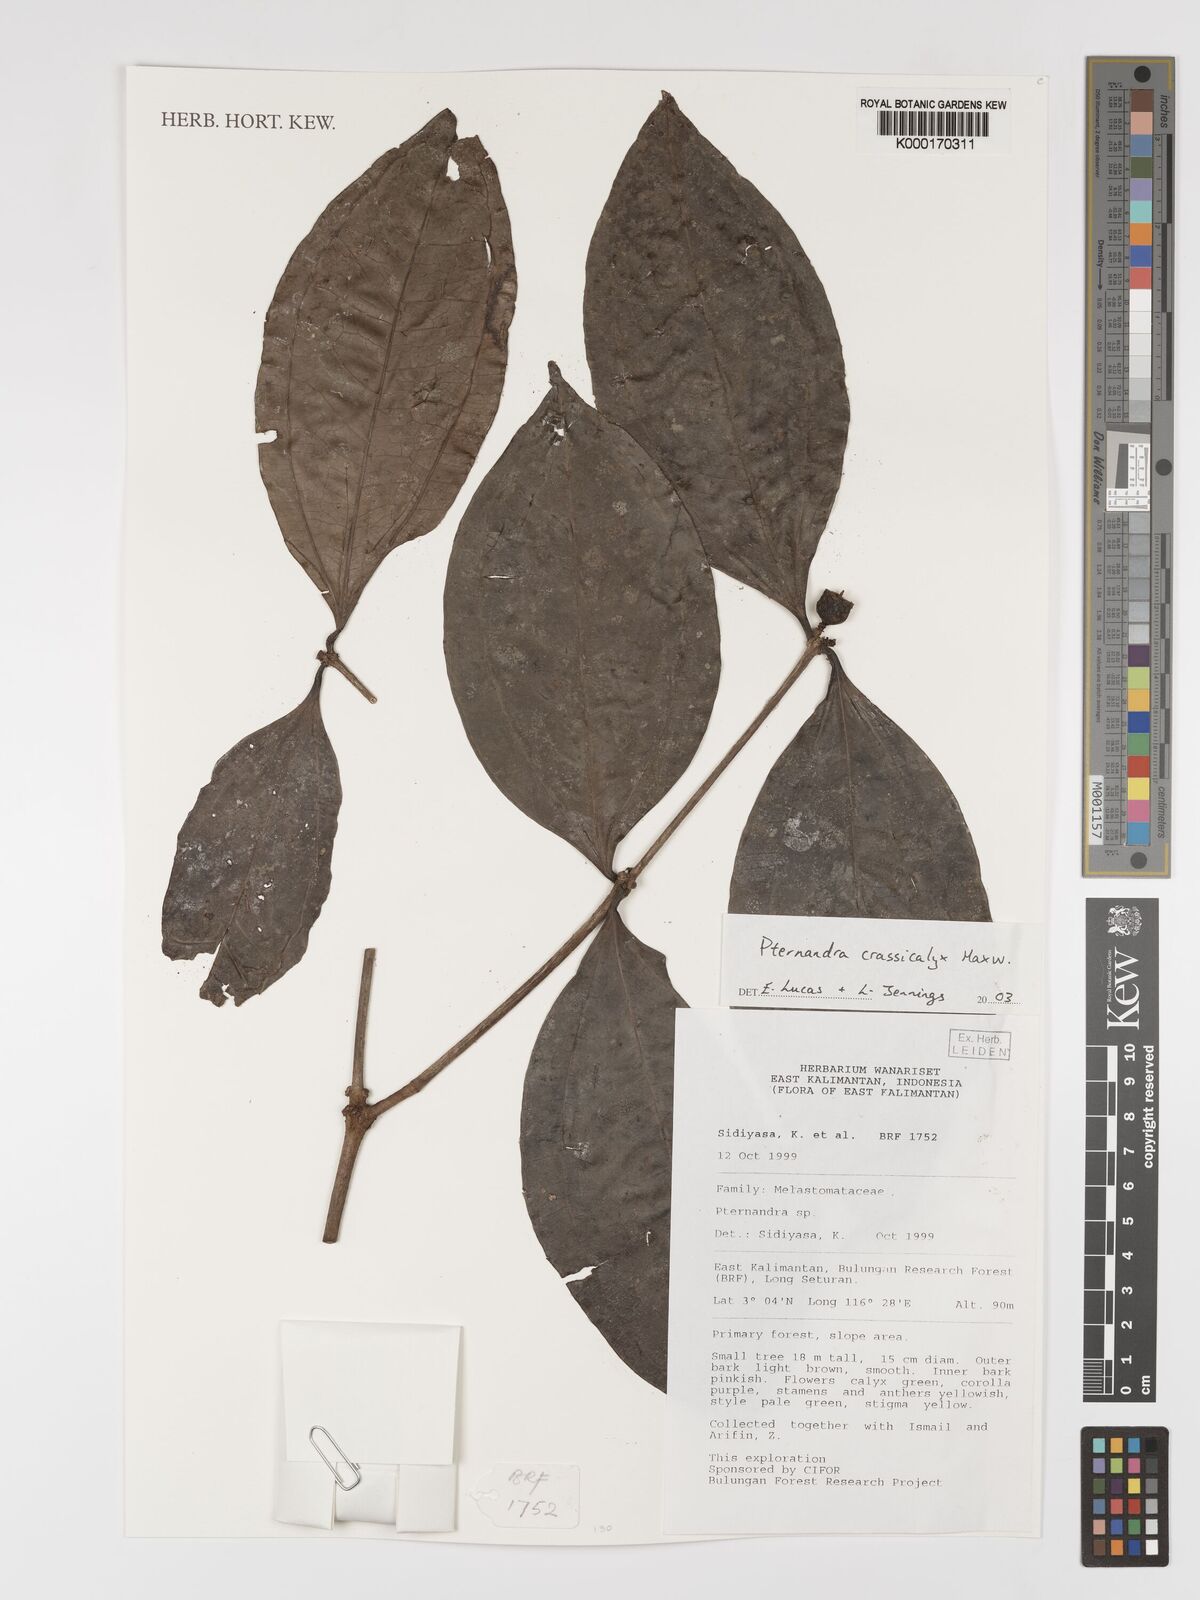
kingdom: Plantae
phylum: Tracheophyta
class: Magnoliopsida
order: Myrtales
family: Melastomataceae
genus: Pternandra
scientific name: Pternandra crassicalyx
